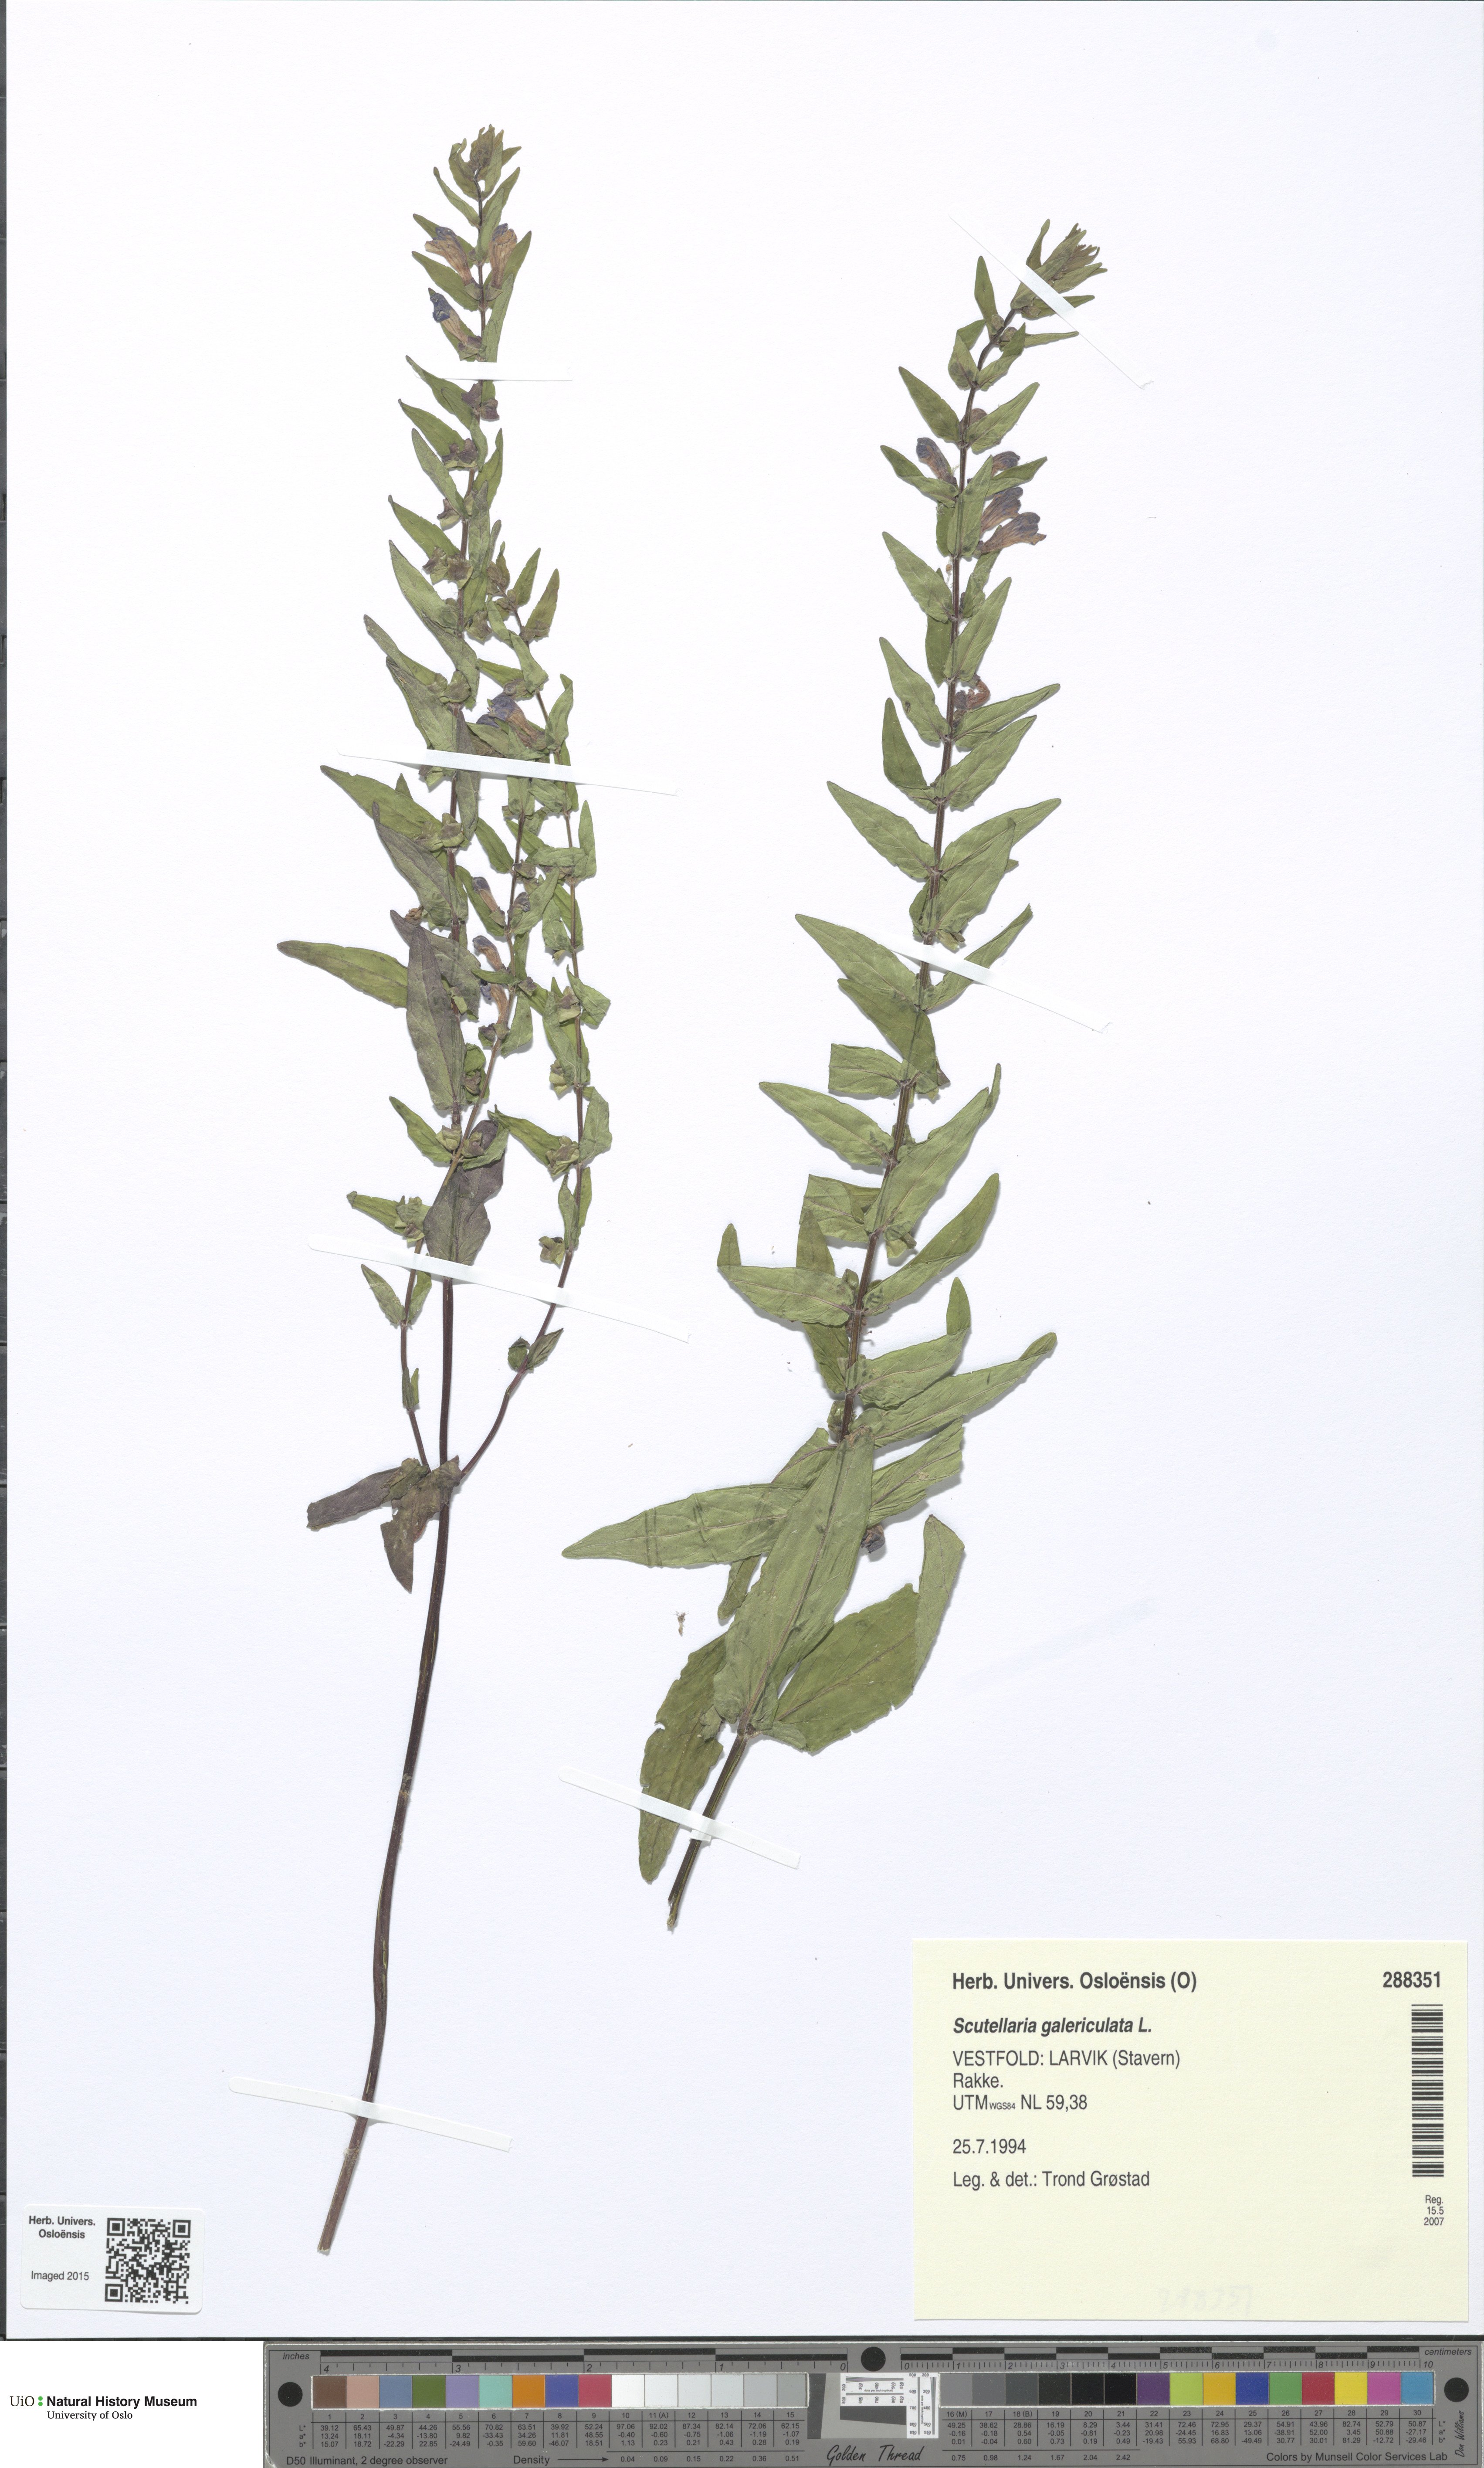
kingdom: Plantae
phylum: Tracheophyta
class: Magnoliopsida
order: Lamiales
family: Lamiaceae
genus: Scutellaria
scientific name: Scutellaria galericulata
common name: Skullcap
